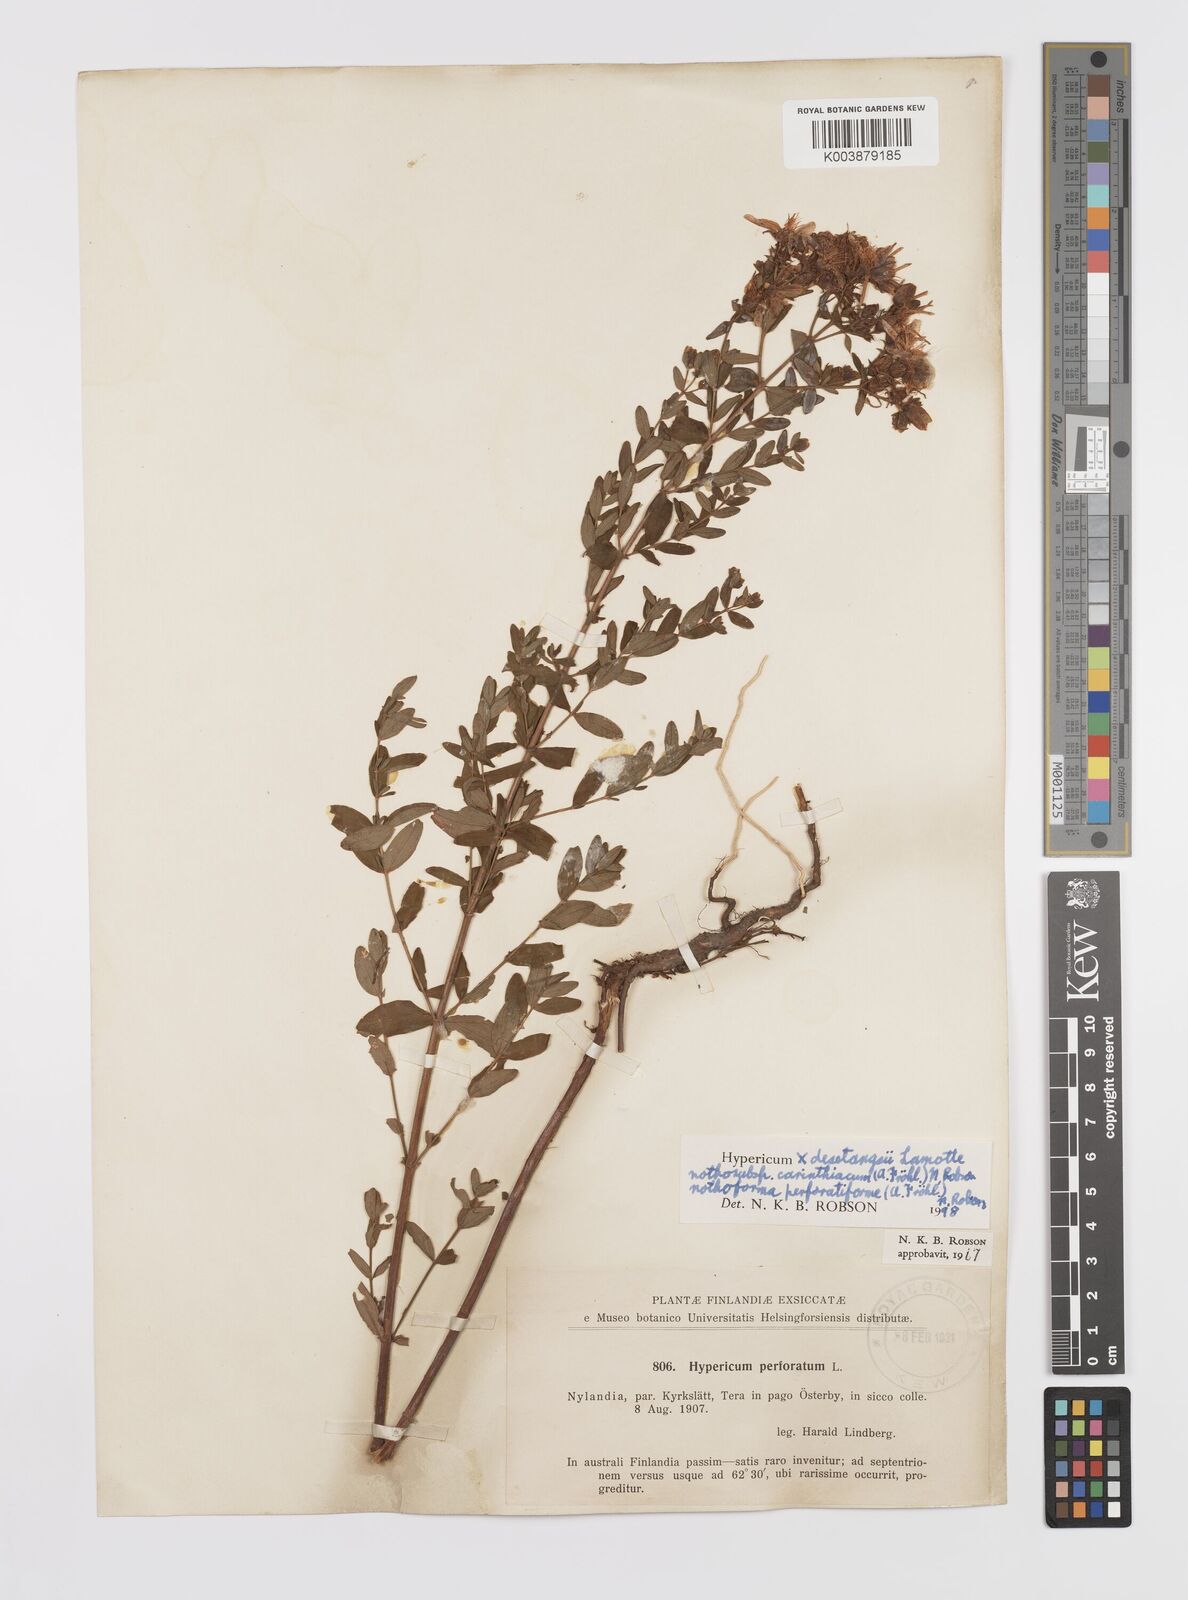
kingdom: Plantae
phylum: Tracheophyta
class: Magnoliopsida
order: Malpighiales
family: Hypericaceae
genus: Hypericum
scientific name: Hypericum carinthiacum
